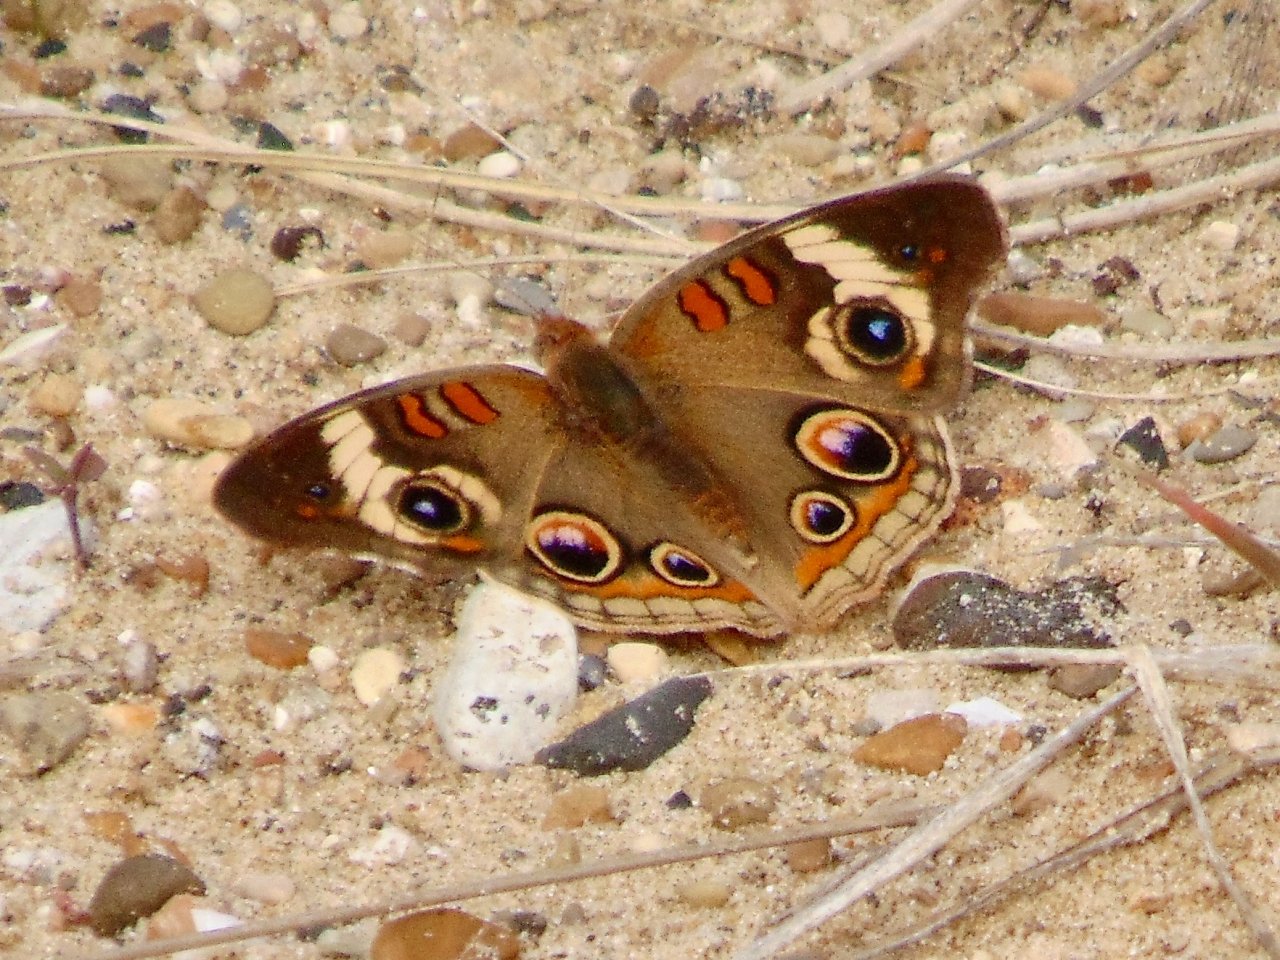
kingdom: Animalia
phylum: Arthropoda
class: Insecta
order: Lepidoptera
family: Nymphalidae
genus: Junonia
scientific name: Junonia coenia
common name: Common Buckeye
